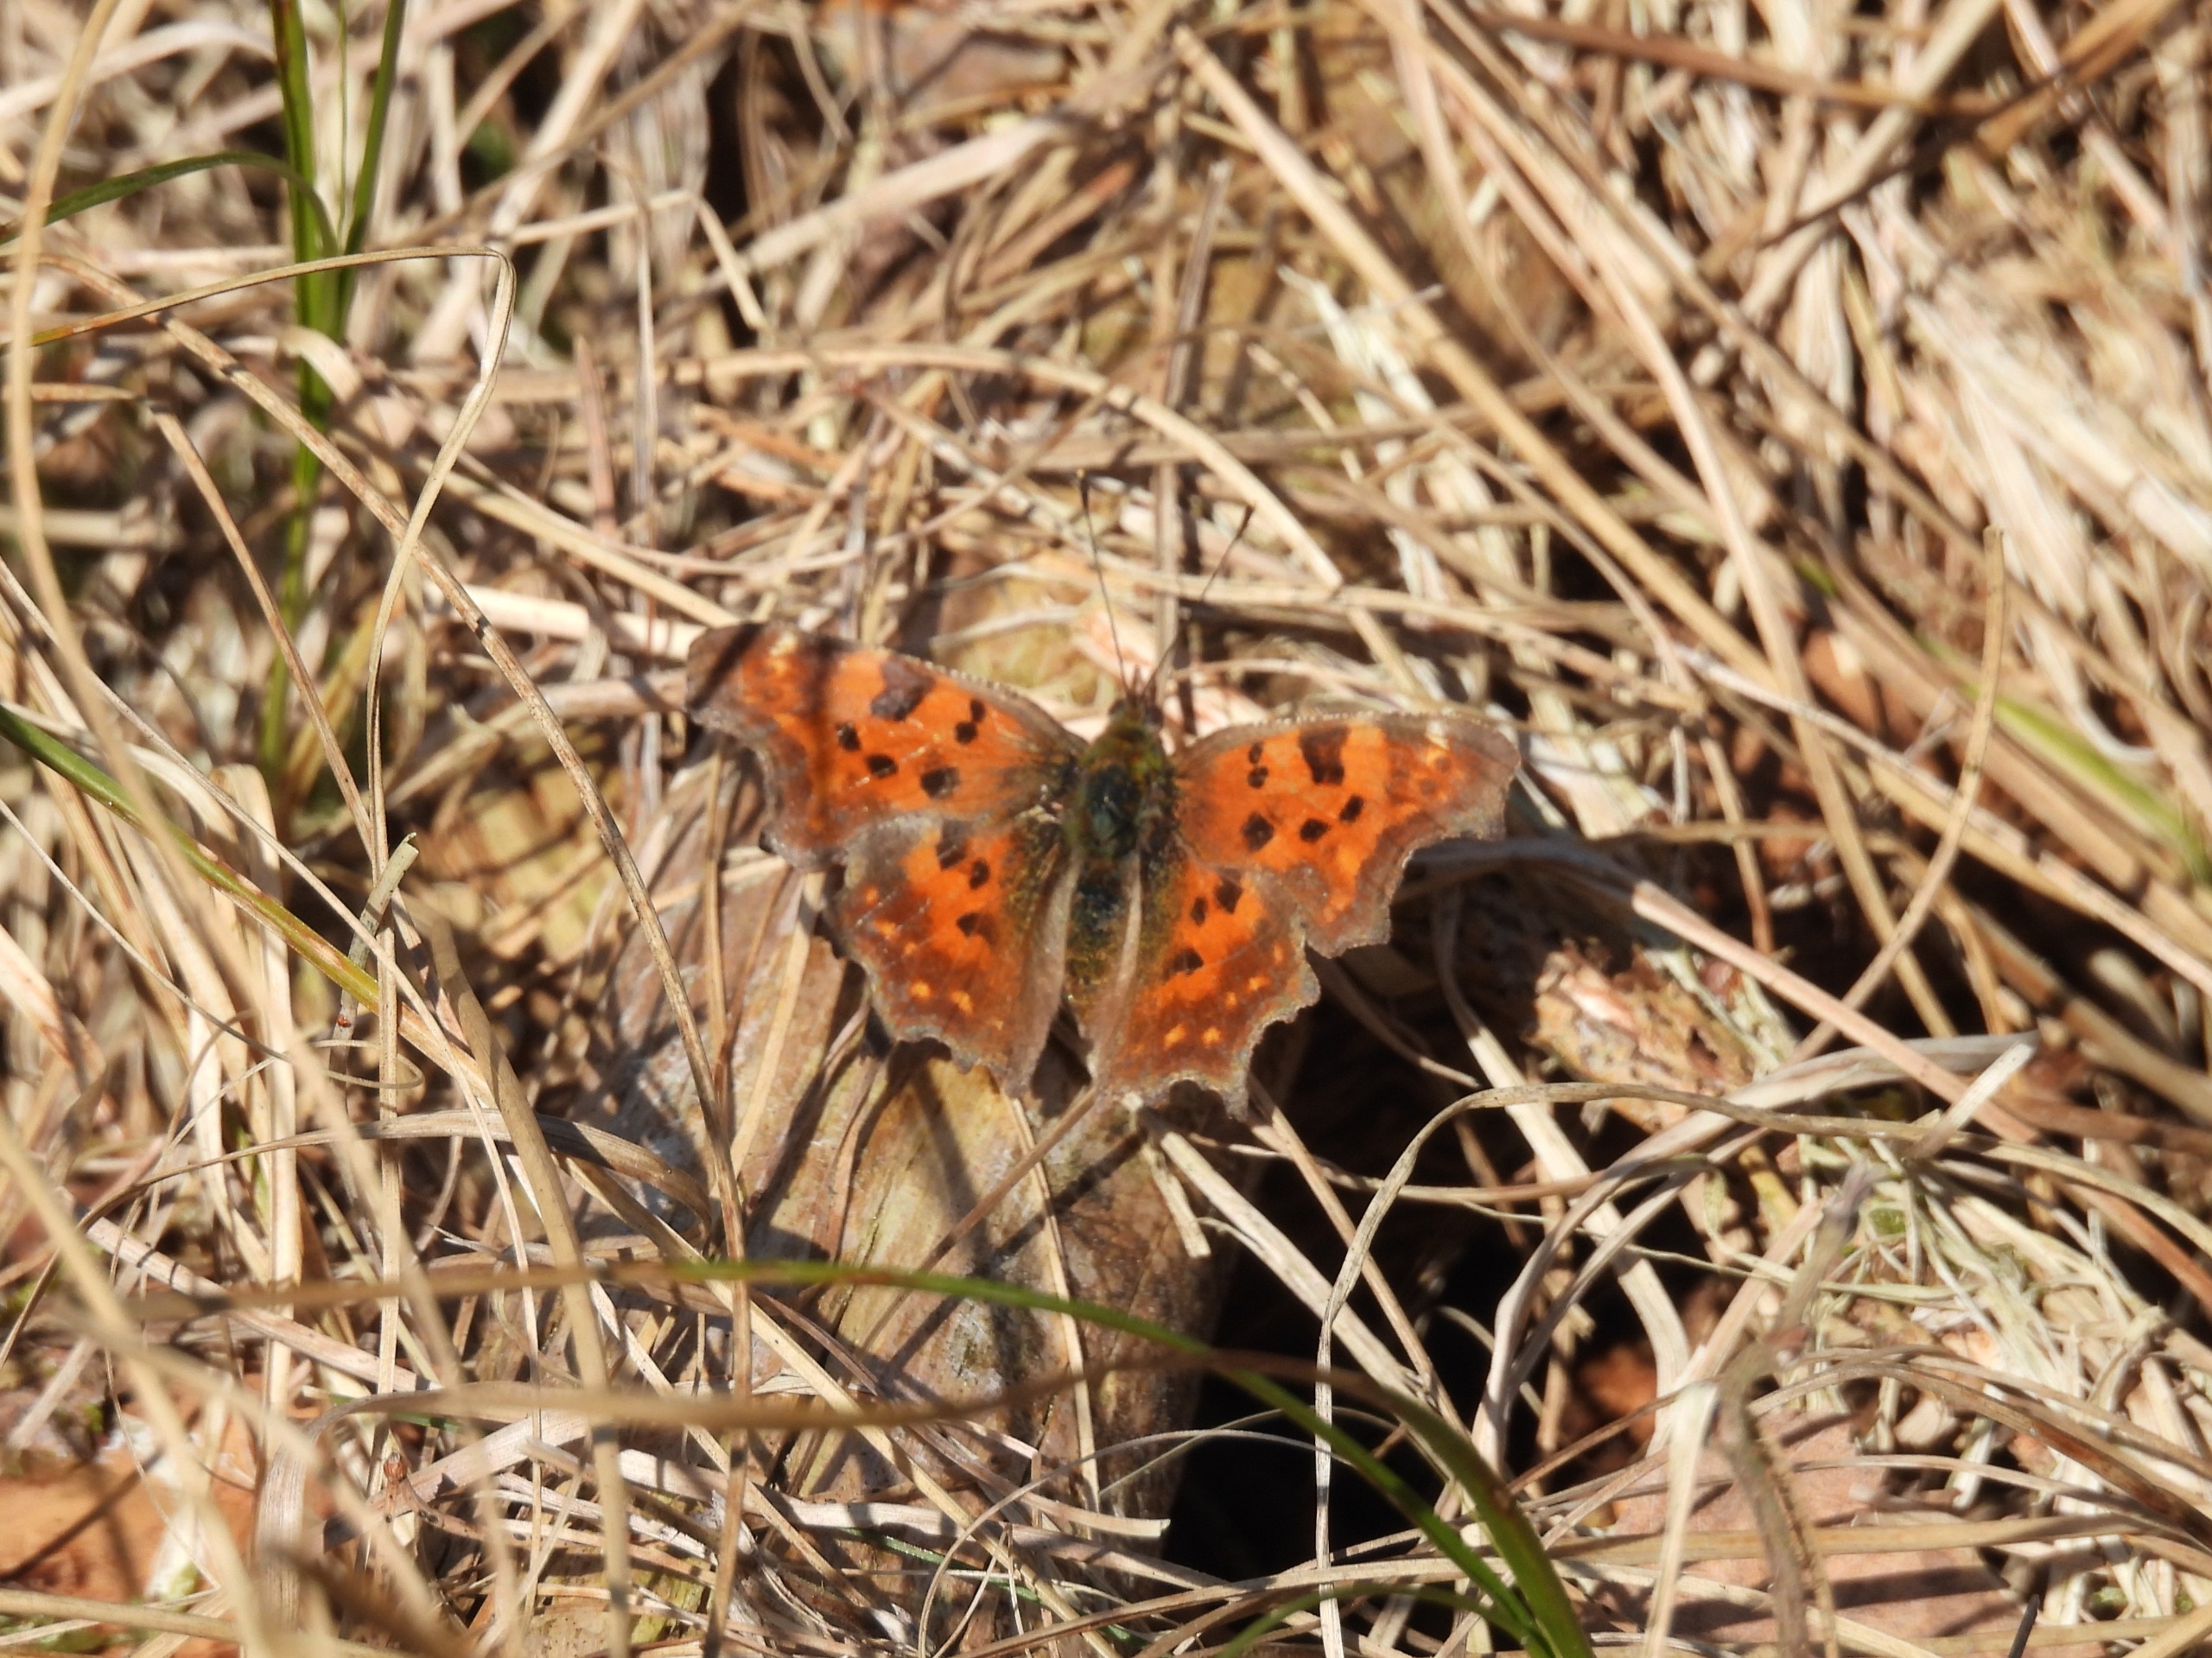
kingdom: Animalia
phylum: Arthropoda
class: Insecta
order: Lepidoptera
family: Nymphalidae
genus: Polygonia
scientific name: Polygonia c-album
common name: Det hvide C
